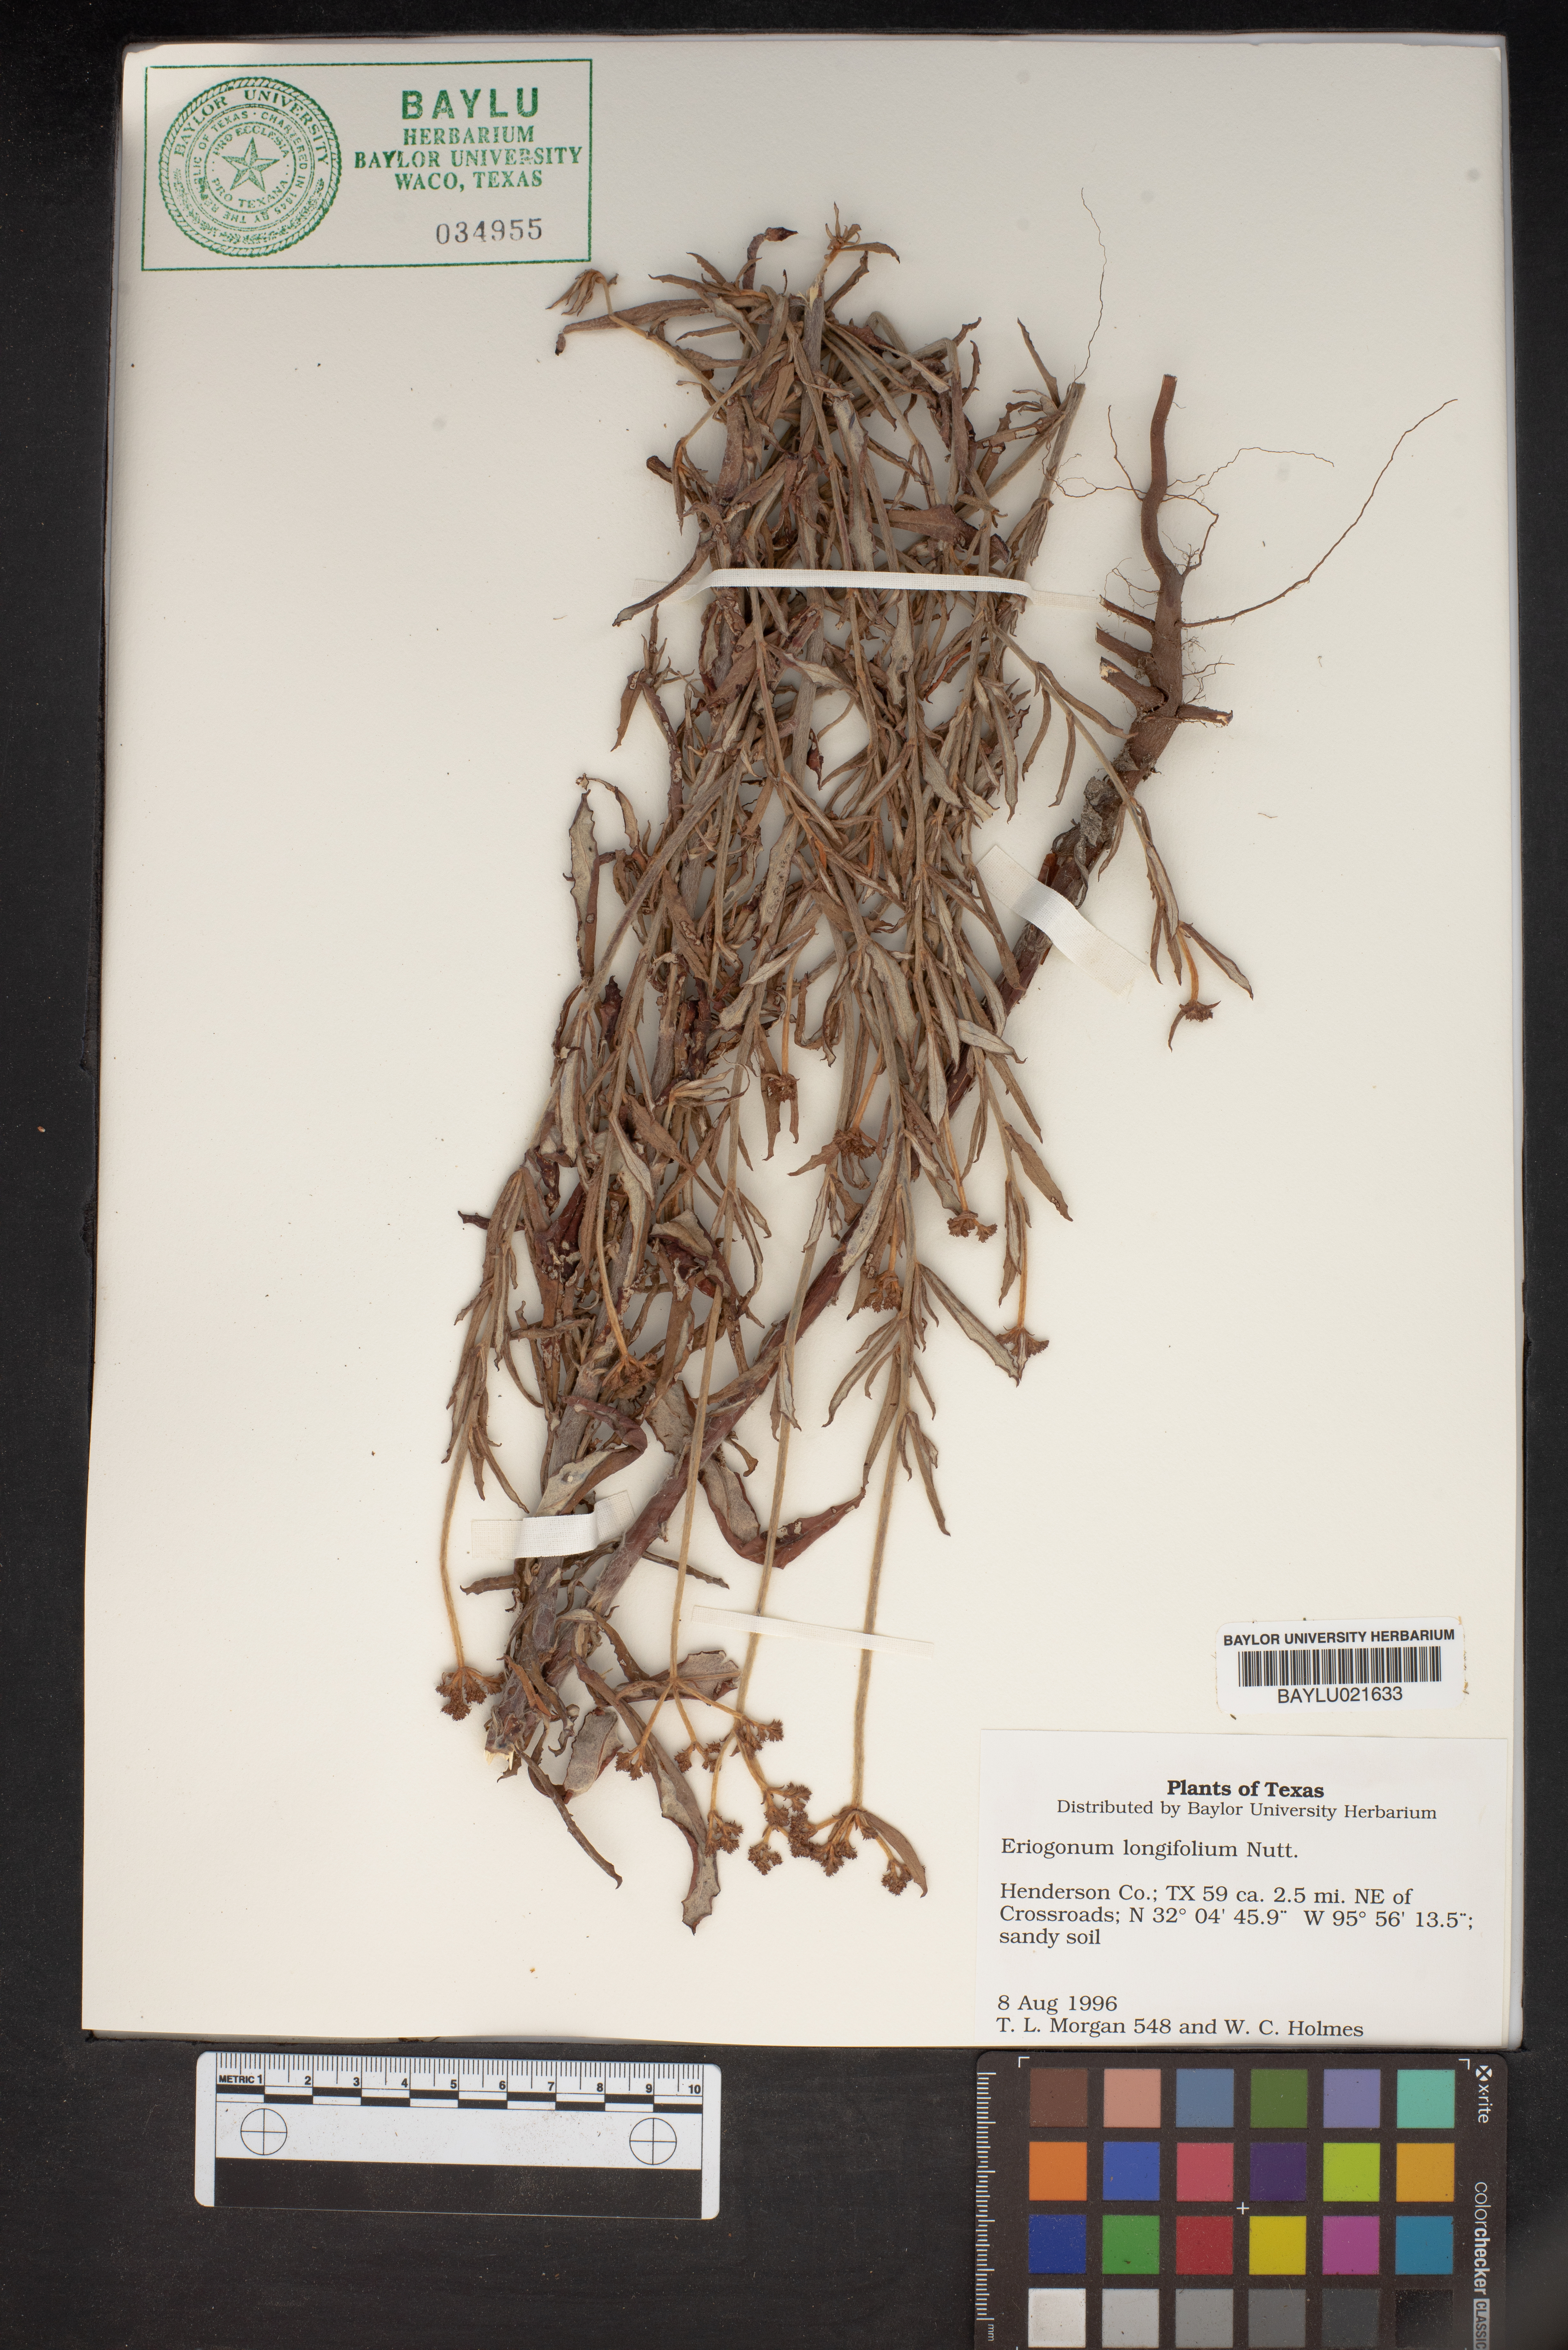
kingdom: Plantae
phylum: Tracheophyta
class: Magnoliopsida
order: Caryophyllales
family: Polygonaceae
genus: Eriogonum
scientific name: Eriogonum longifolium
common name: Longleaf wild buckwheat
